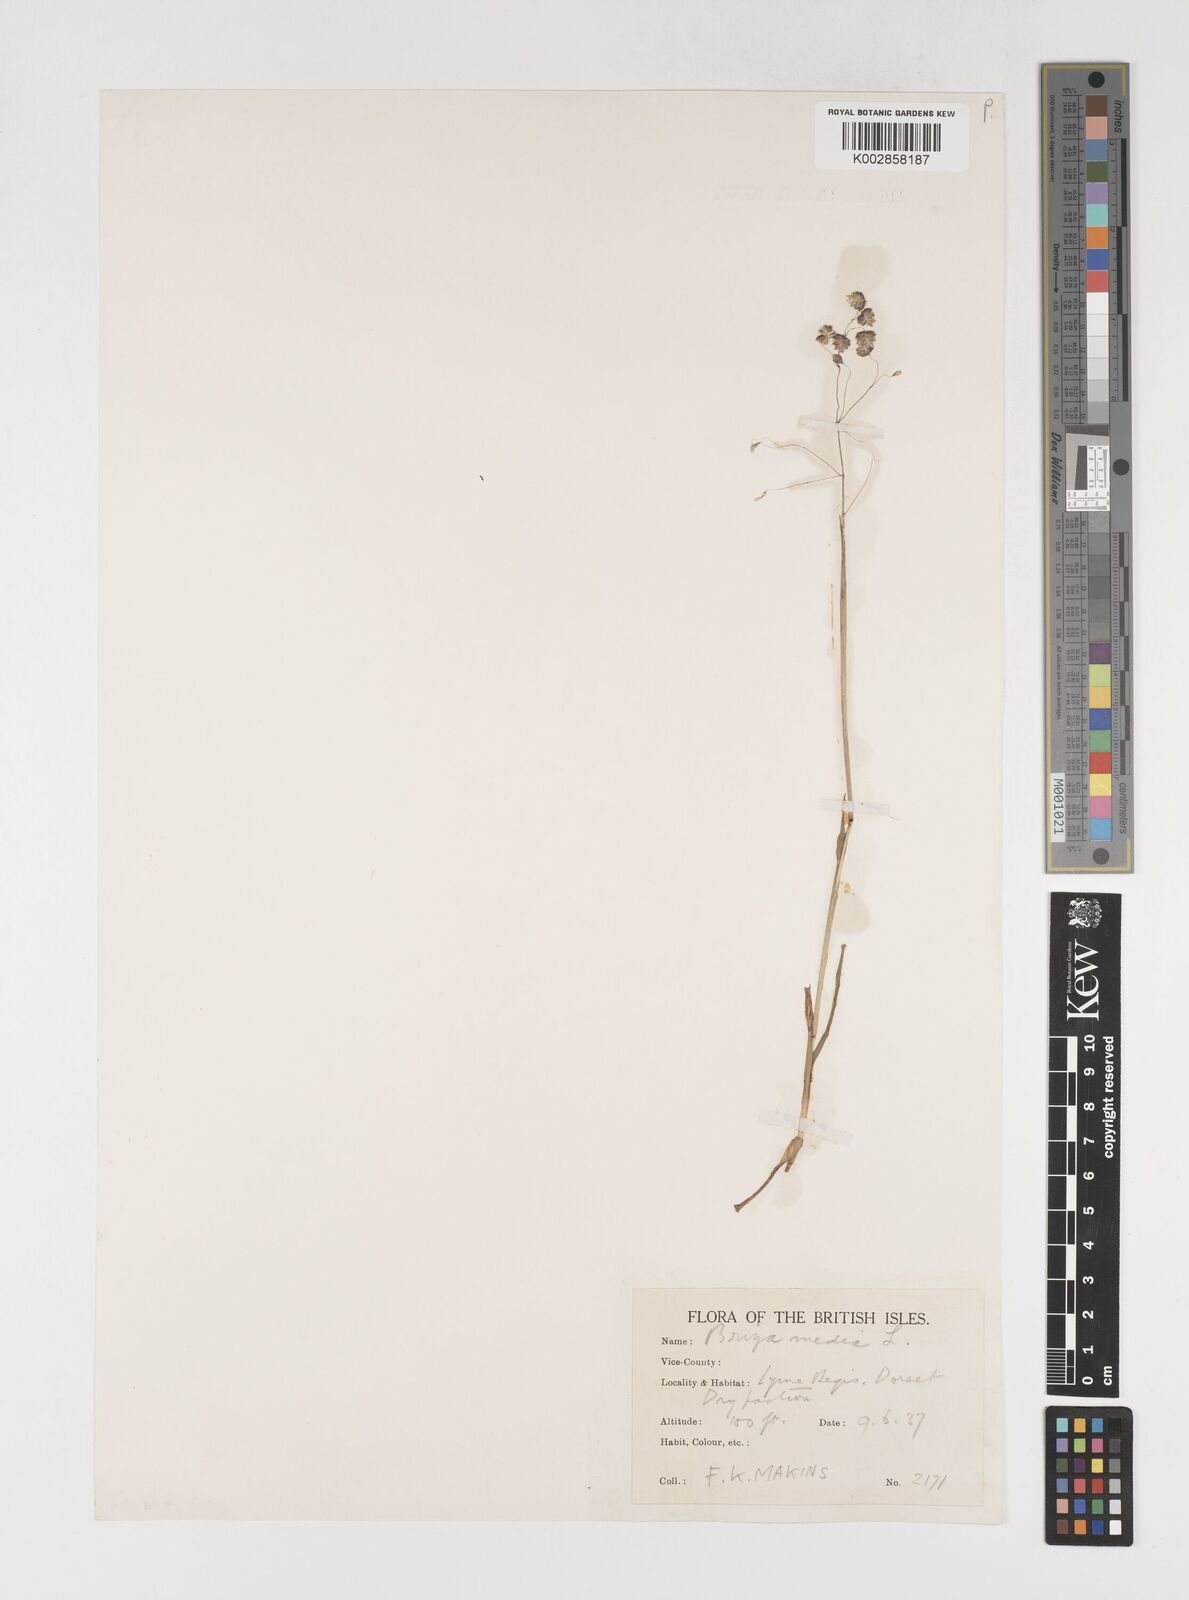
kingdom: Plantae
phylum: Tracheophyta
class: Liliopsida
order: Poales
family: Poaceae
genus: Briza
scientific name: Briza media
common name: Quaking grass
